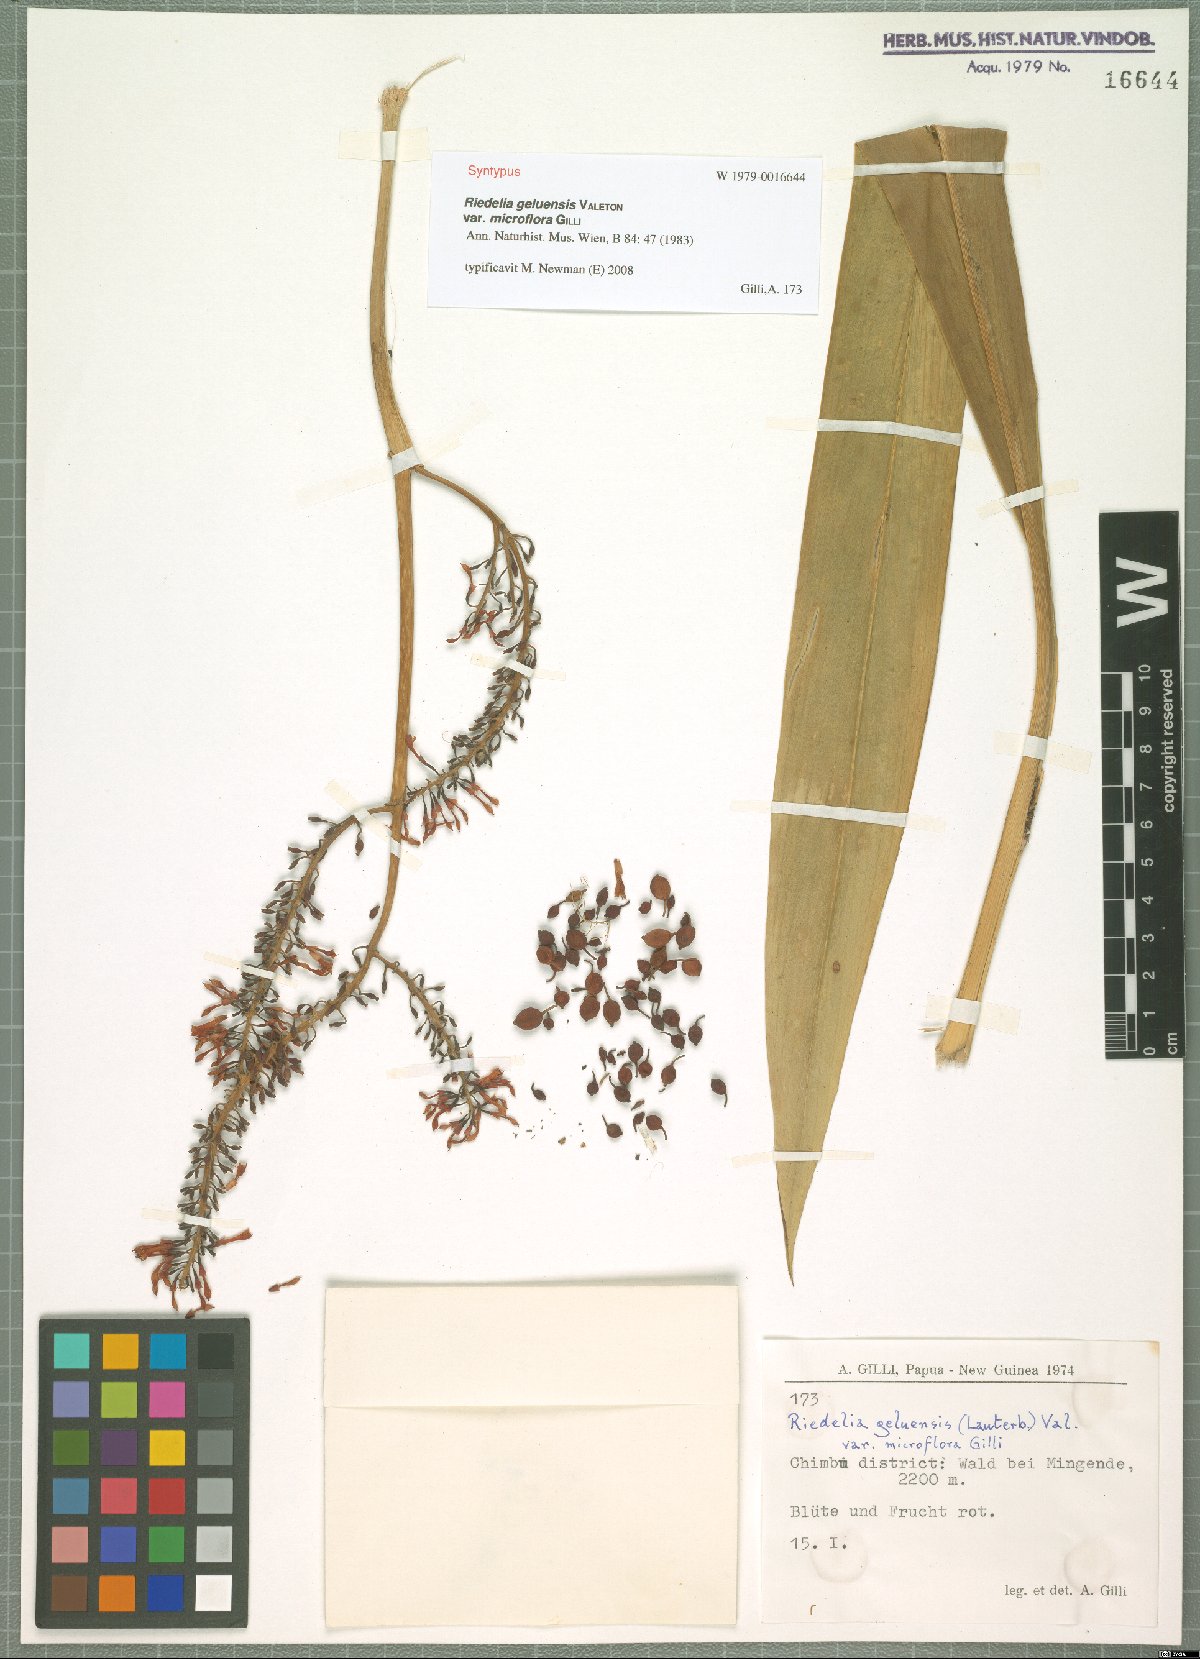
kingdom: Plantae
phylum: Tracheophyta
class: Liliopsida
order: Zingiberales
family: Zingiberaceae
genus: Riedelia
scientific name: Riedelia geluensis
